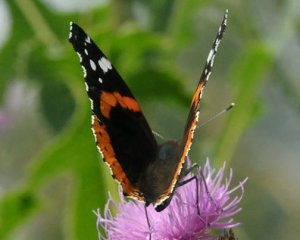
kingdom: Animalia
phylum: Arthropoda
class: Insecta
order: Lepidoptera
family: Nymphalidae
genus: Vanessa
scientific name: Vanessa atalanta
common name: Red Admiral
